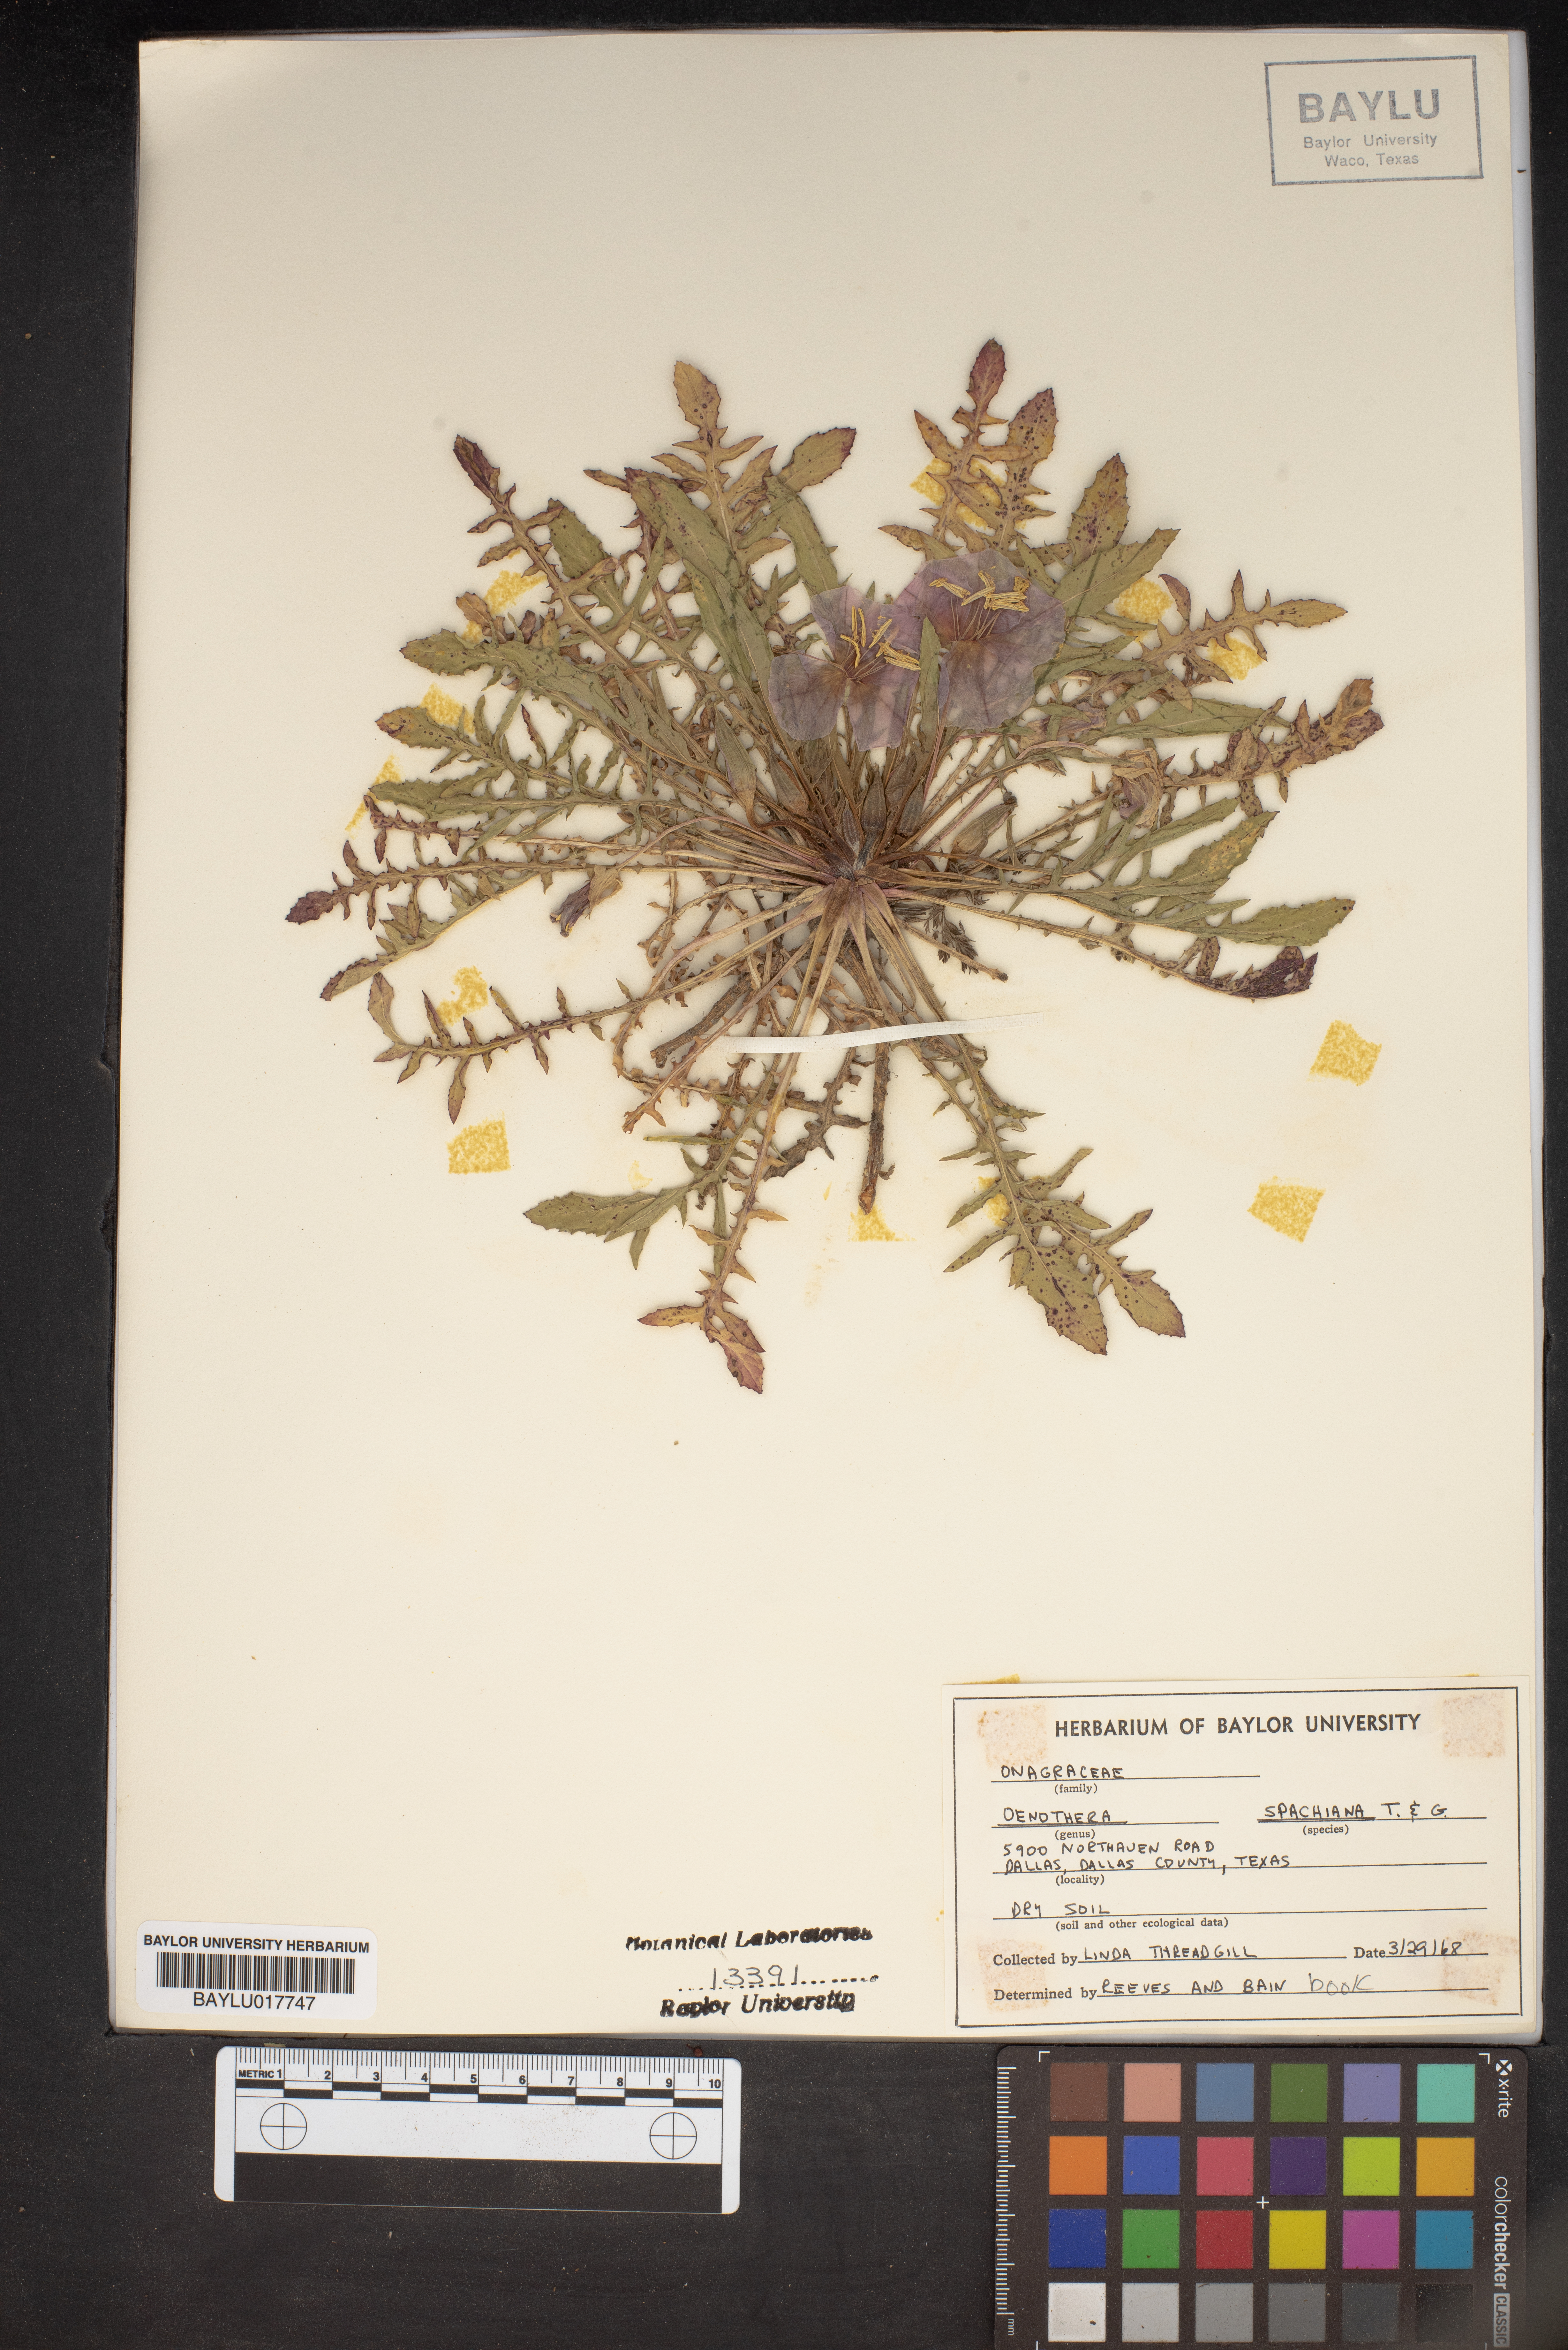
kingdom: Plantae
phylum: Tracheophyta
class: Magnoliopsida
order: Myrtales
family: Onagraceae
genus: Oenothera
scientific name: Oenothera spachiana
